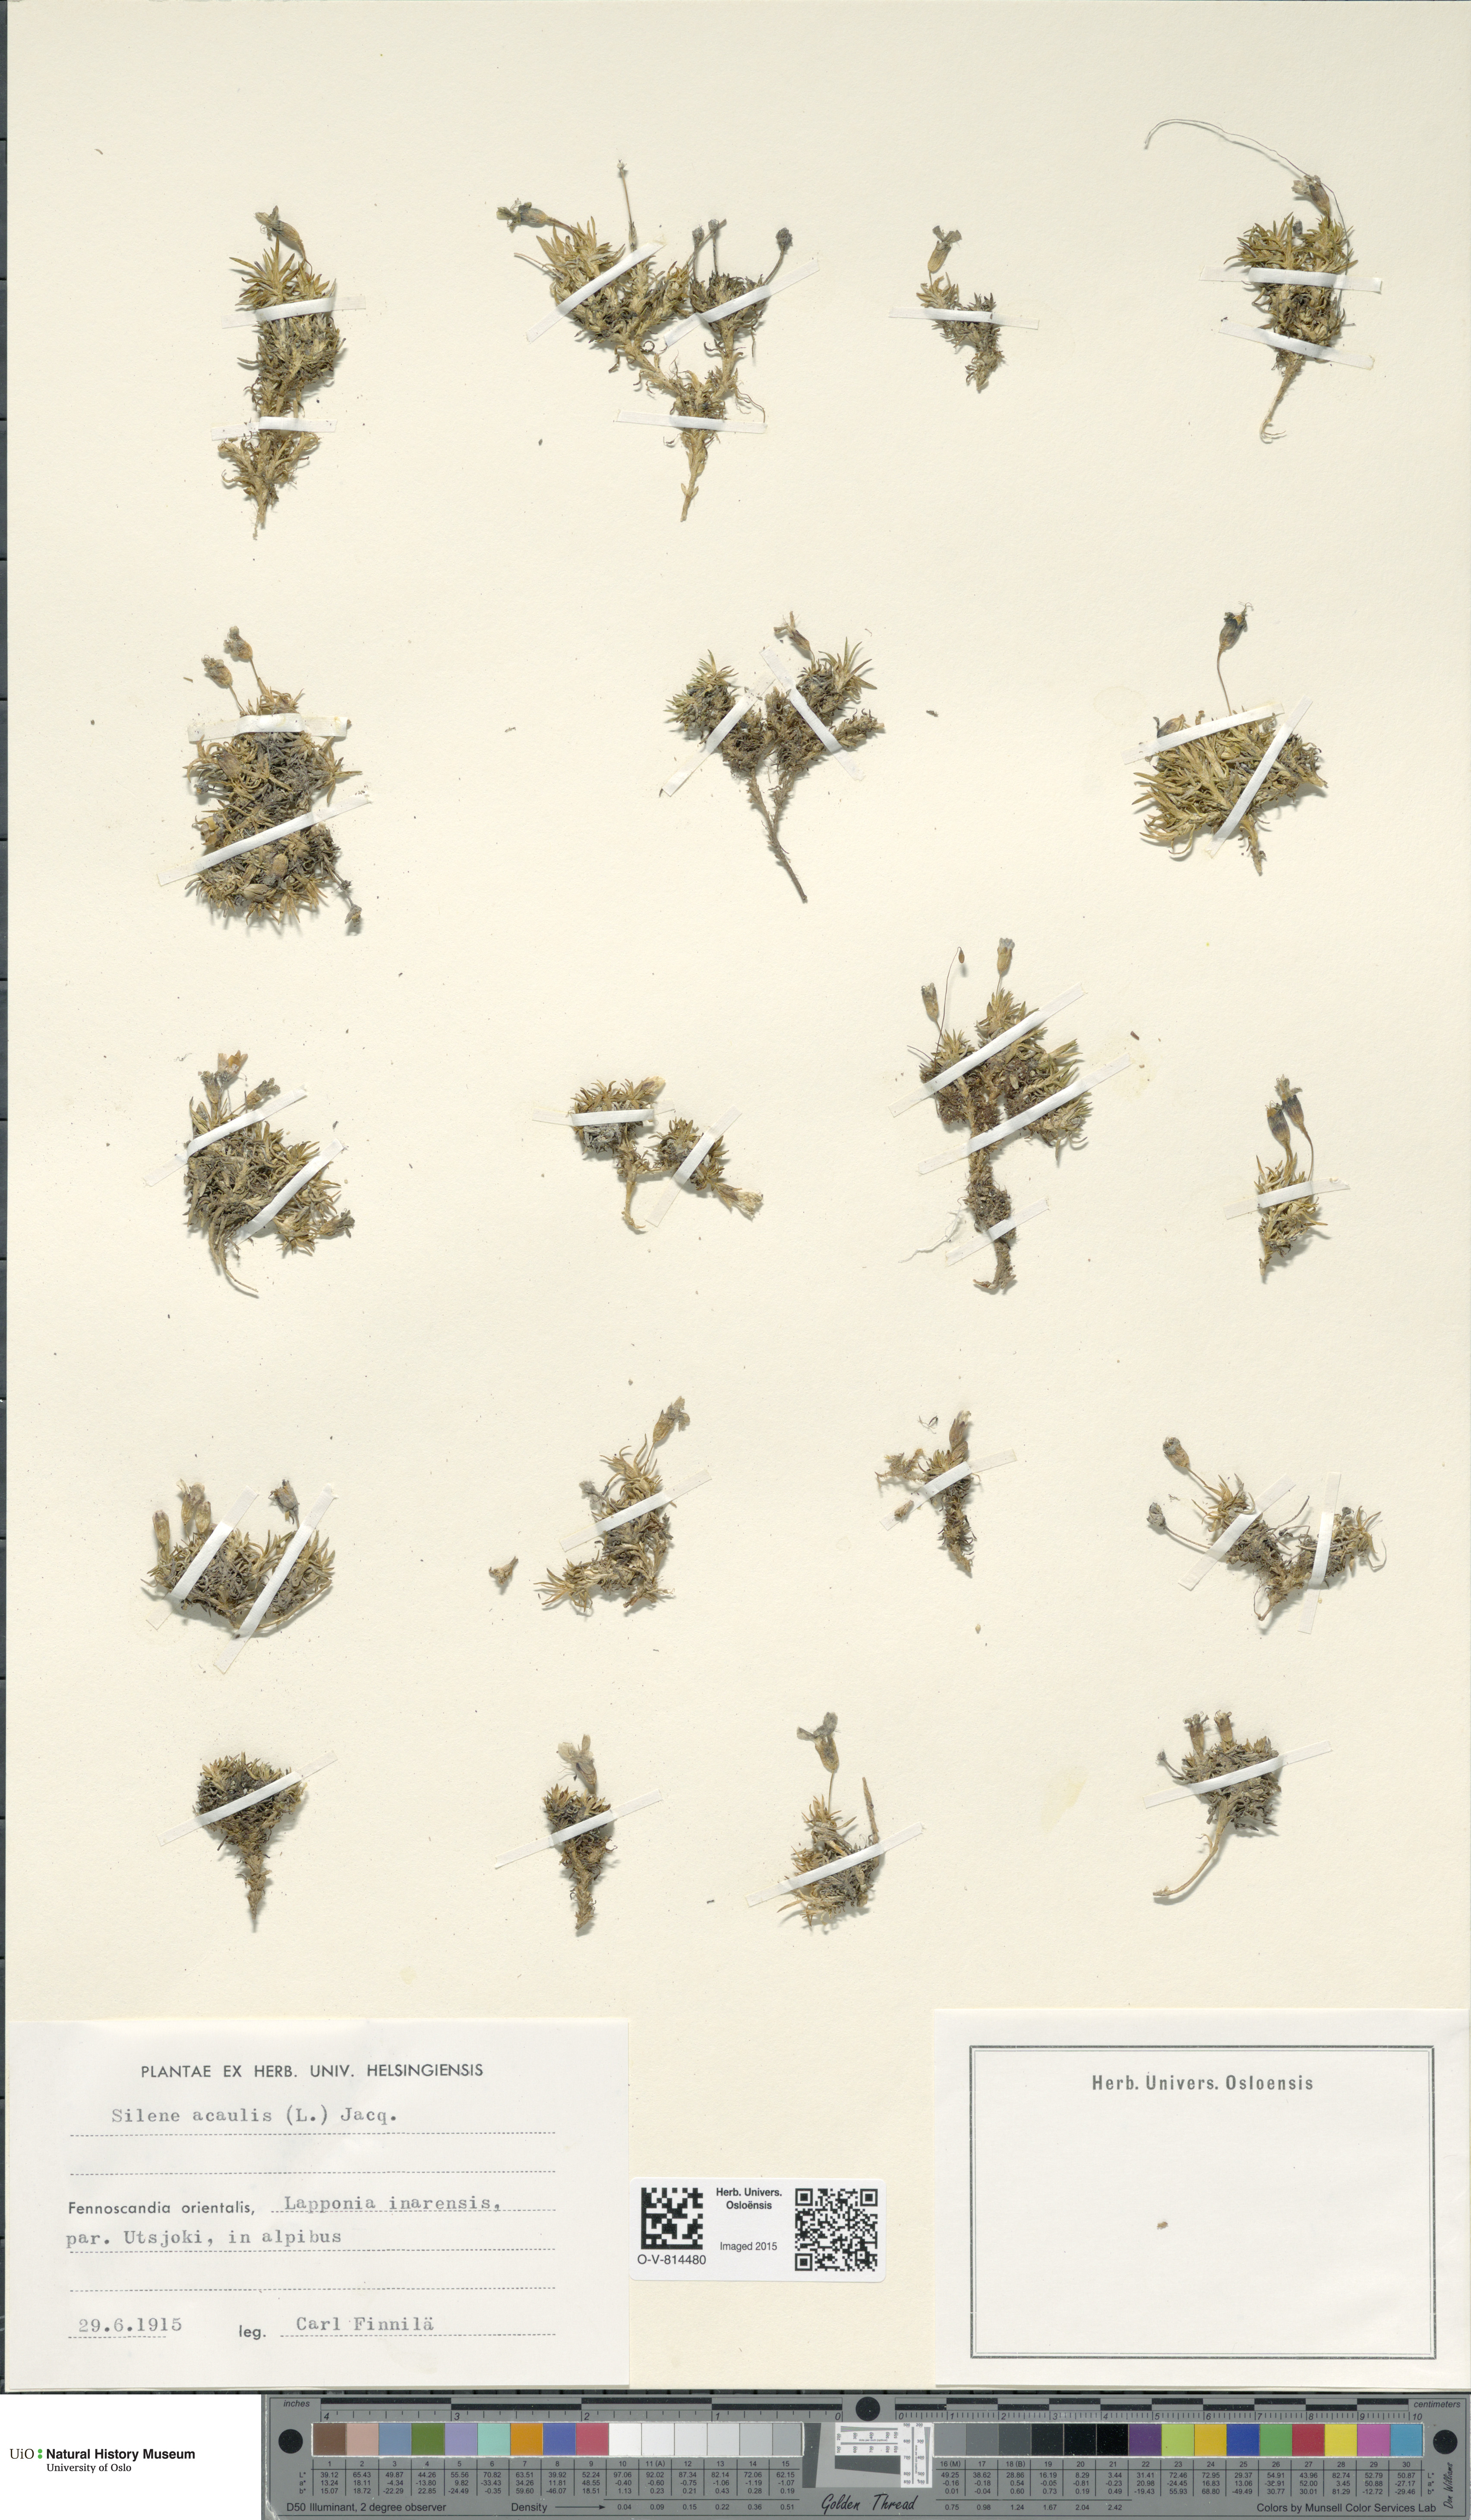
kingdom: Plantae
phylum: Tracheophyta
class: Magnoliopsida
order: Caryophyllales
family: Caryophyllaceae
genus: Silene
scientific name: Silene acaulis
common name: Moss campion
